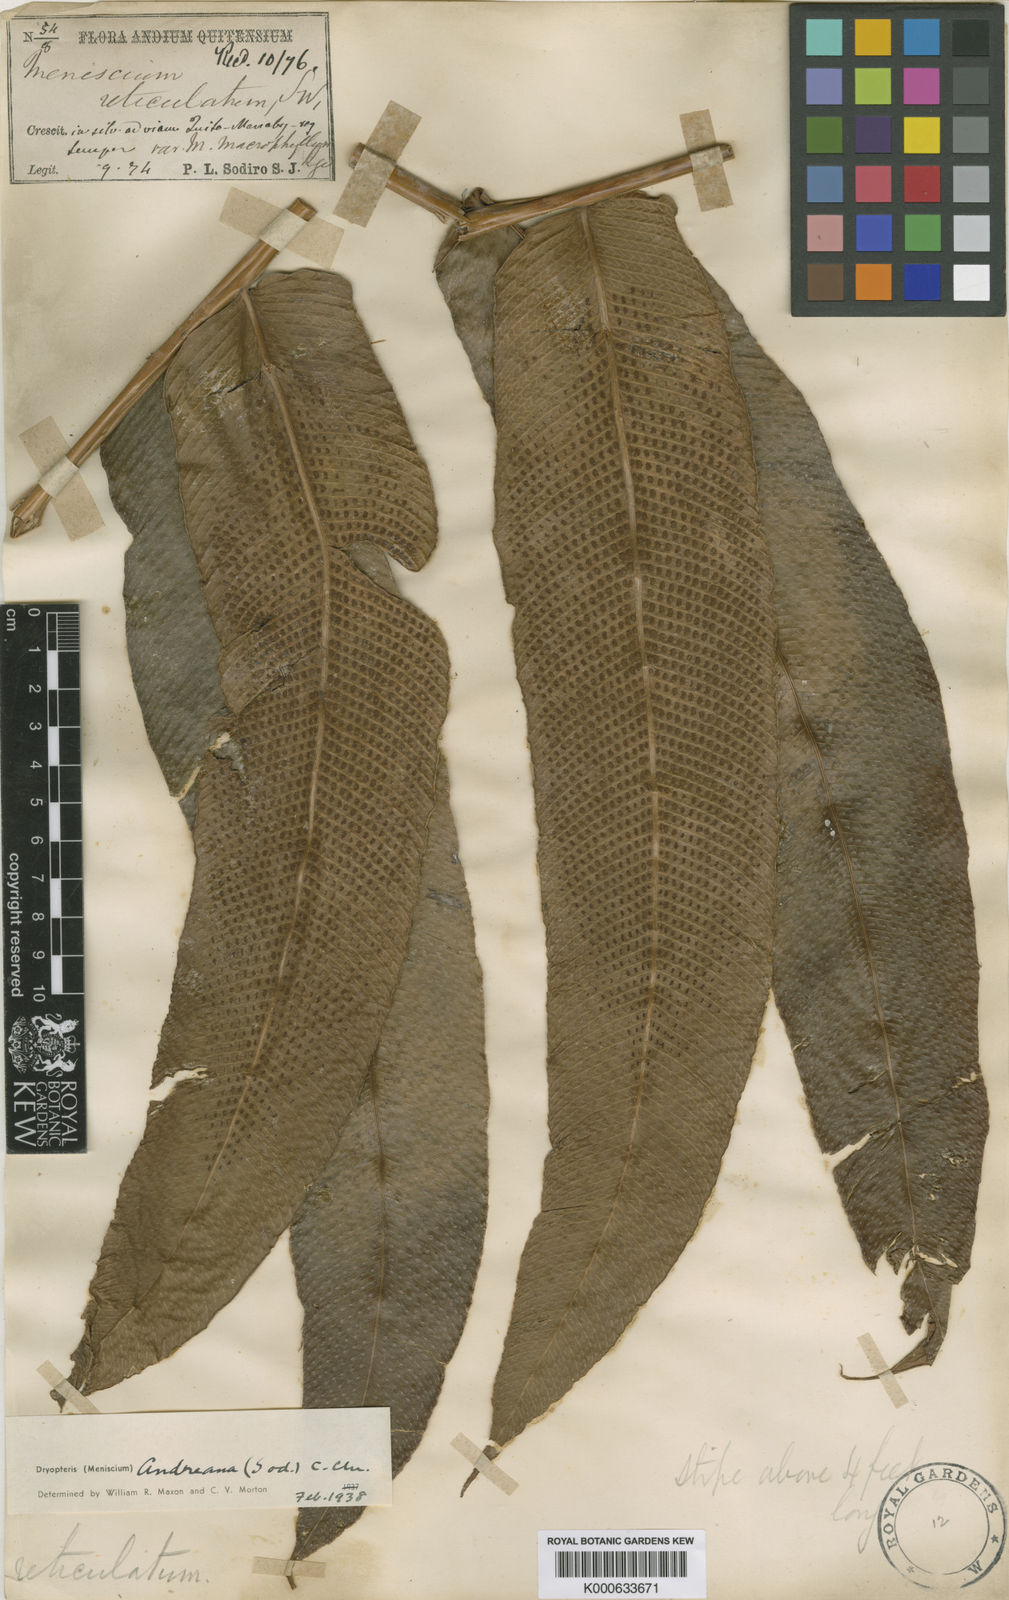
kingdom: Plantae
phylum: Tracheophyta
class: Polypodiopsida
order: Polypodiales
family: Thelypteridaceae
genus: Meniscium
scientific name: Meniscium andreanum
